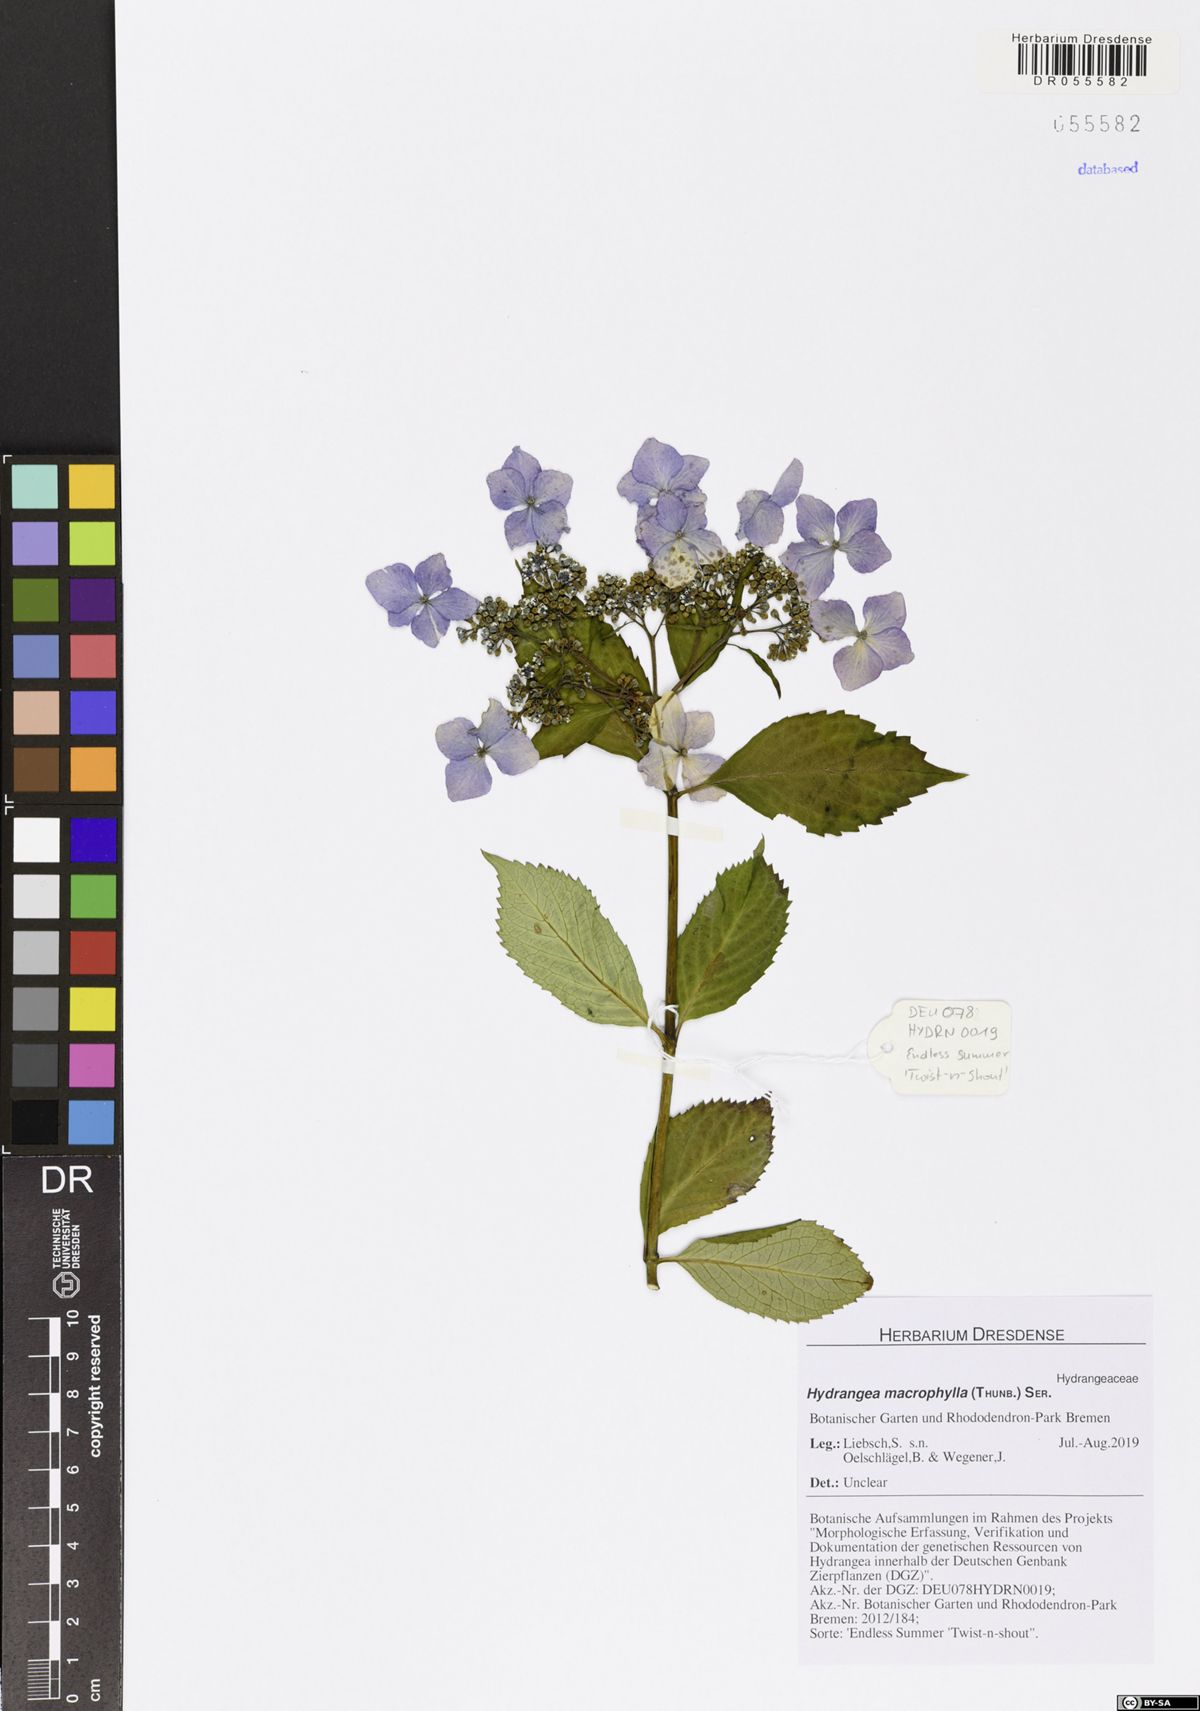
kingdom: Plantae
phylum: Tracheophyta
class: Magnoliopsida
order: Cornales
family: Hydrangeaceae
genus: Hydrangea
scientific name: Hydrangea macrophylla
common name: Hydrangea
